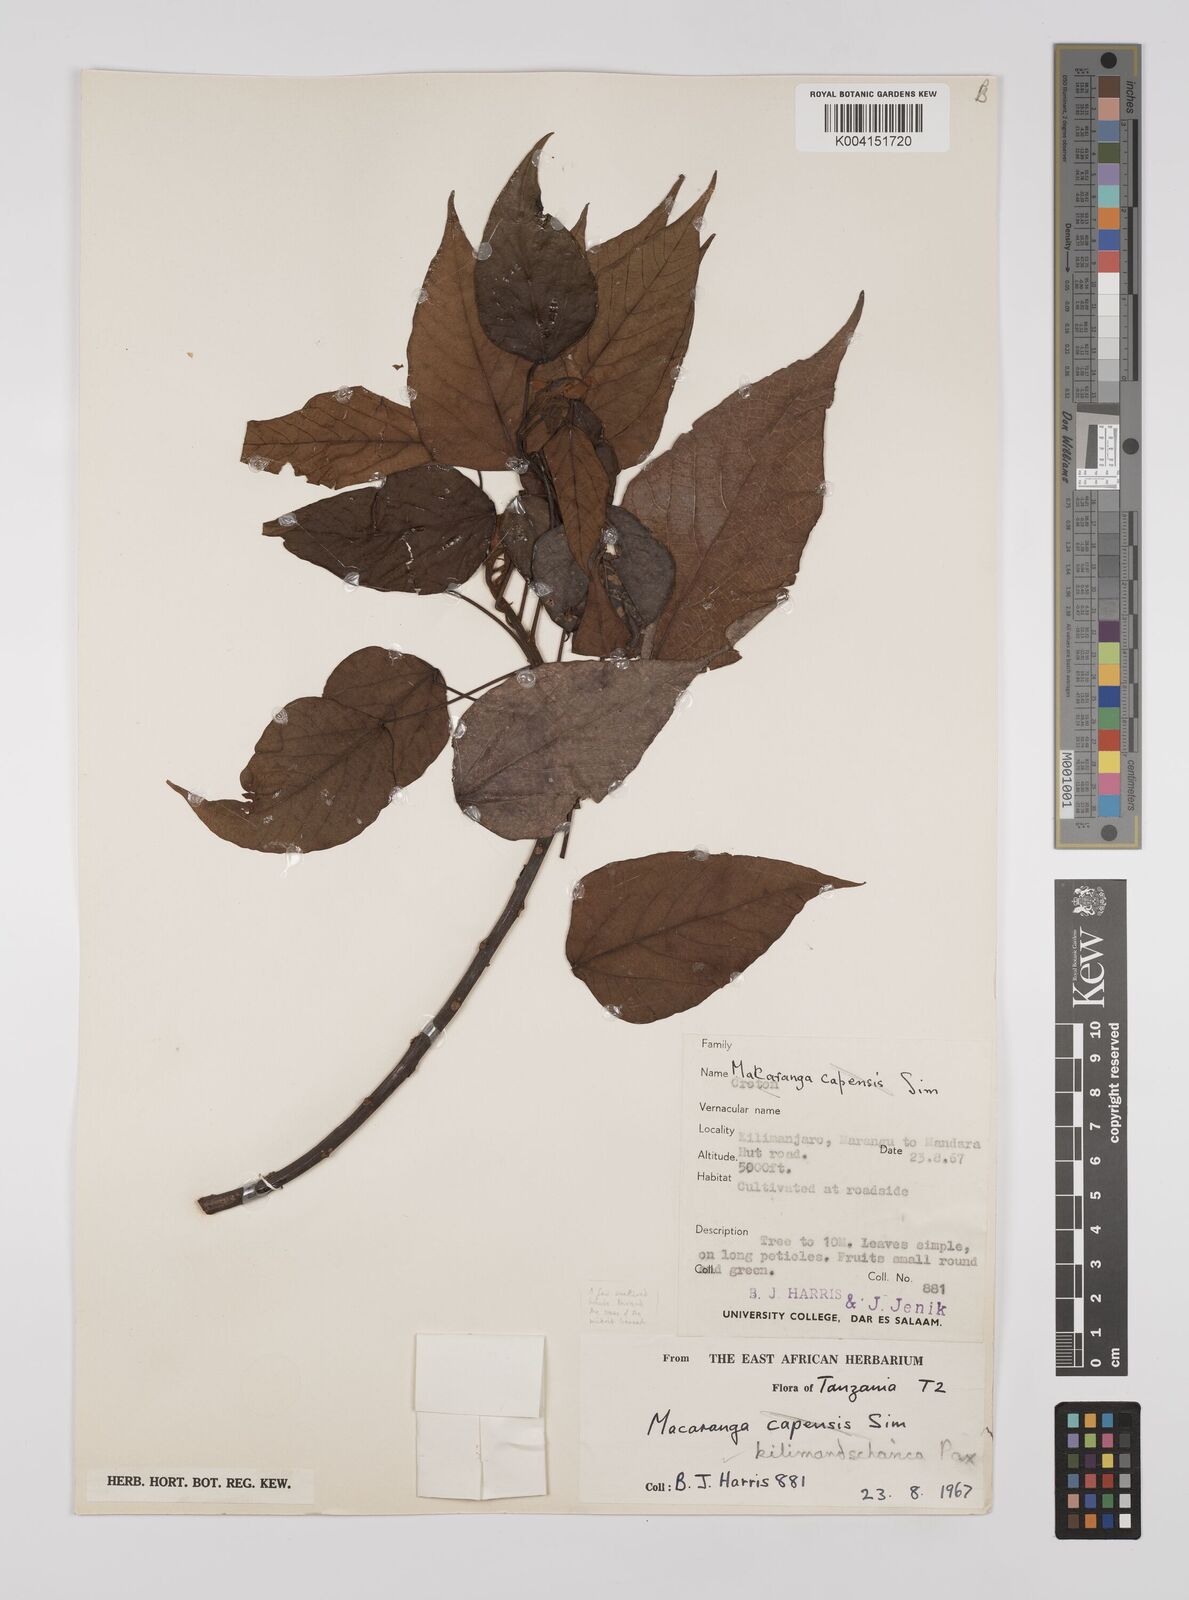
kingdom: Plantae
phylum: Tracheophyta
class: Magnoliopsida
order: Malpighiales
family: Euphorbiaceae
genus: Macaranga
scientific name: Macaranga kilimandscharica
